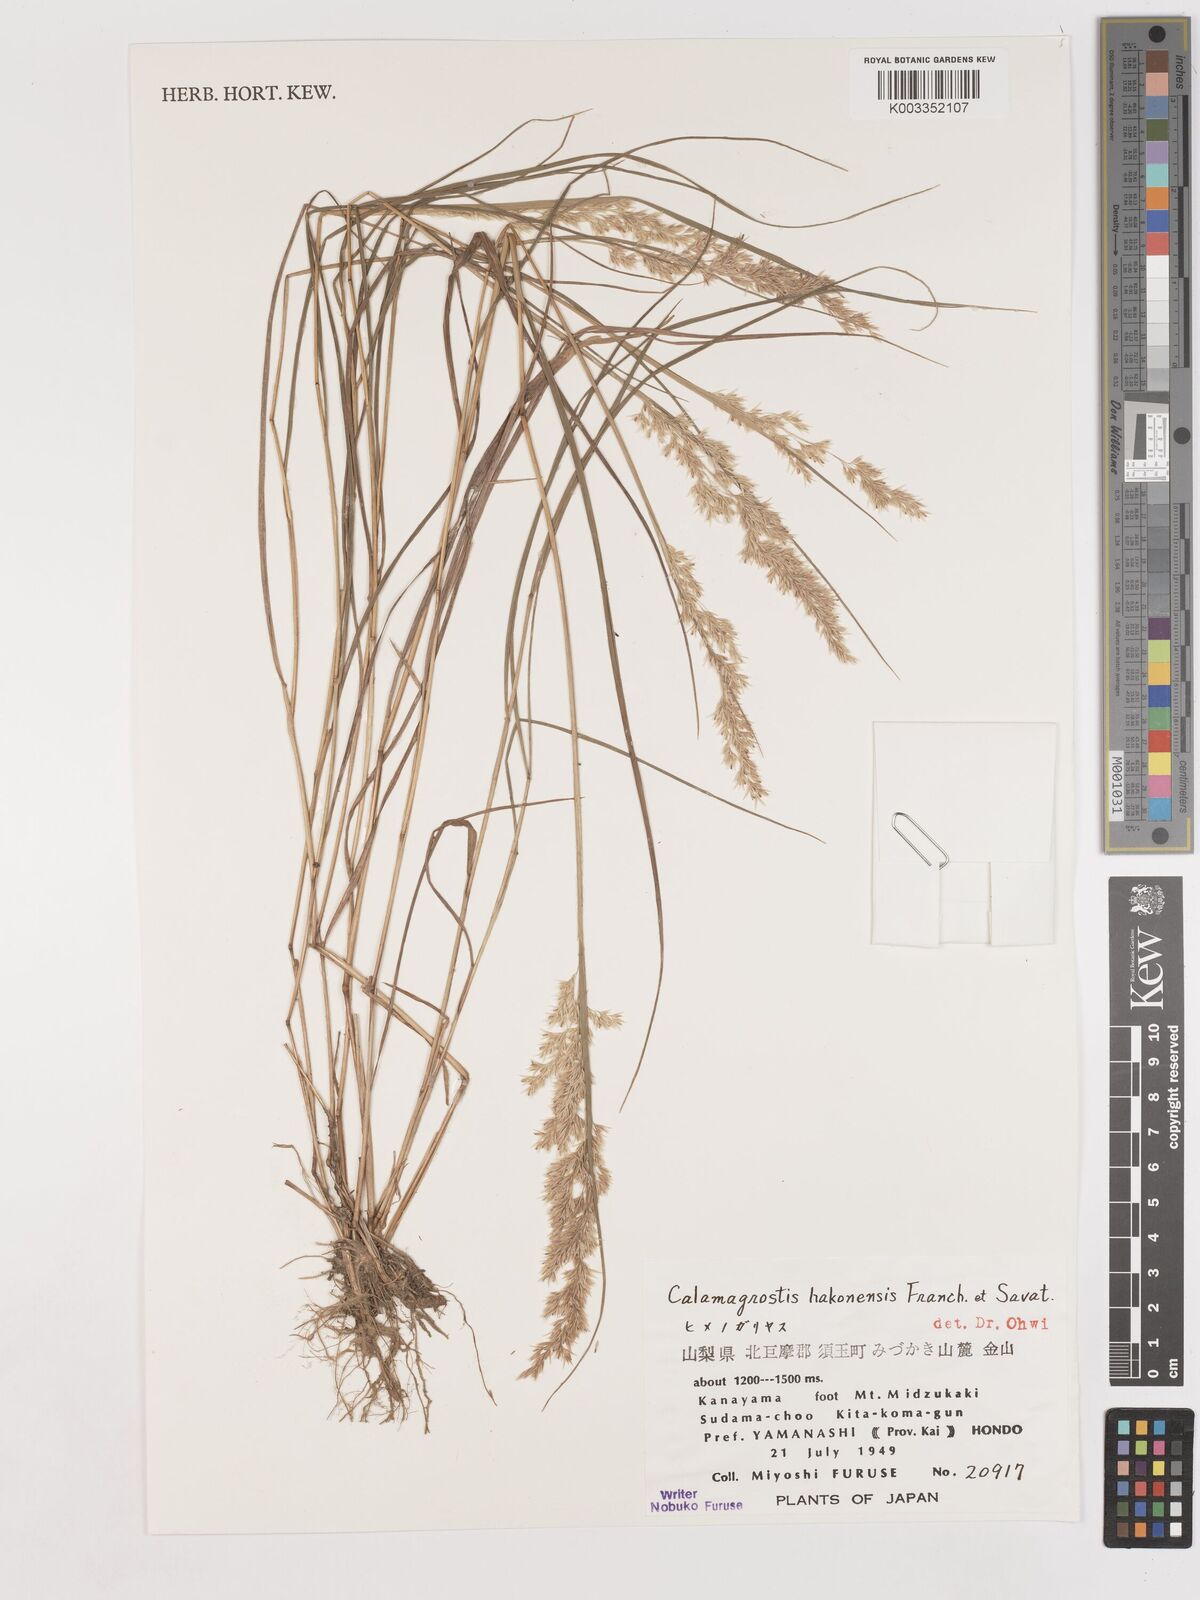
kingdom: Plantae
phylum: Tracheophyta
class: Liliopsida
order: Poales
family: Poaceae
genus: Calamagrostis
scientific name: Calamagrostis hakonensis
